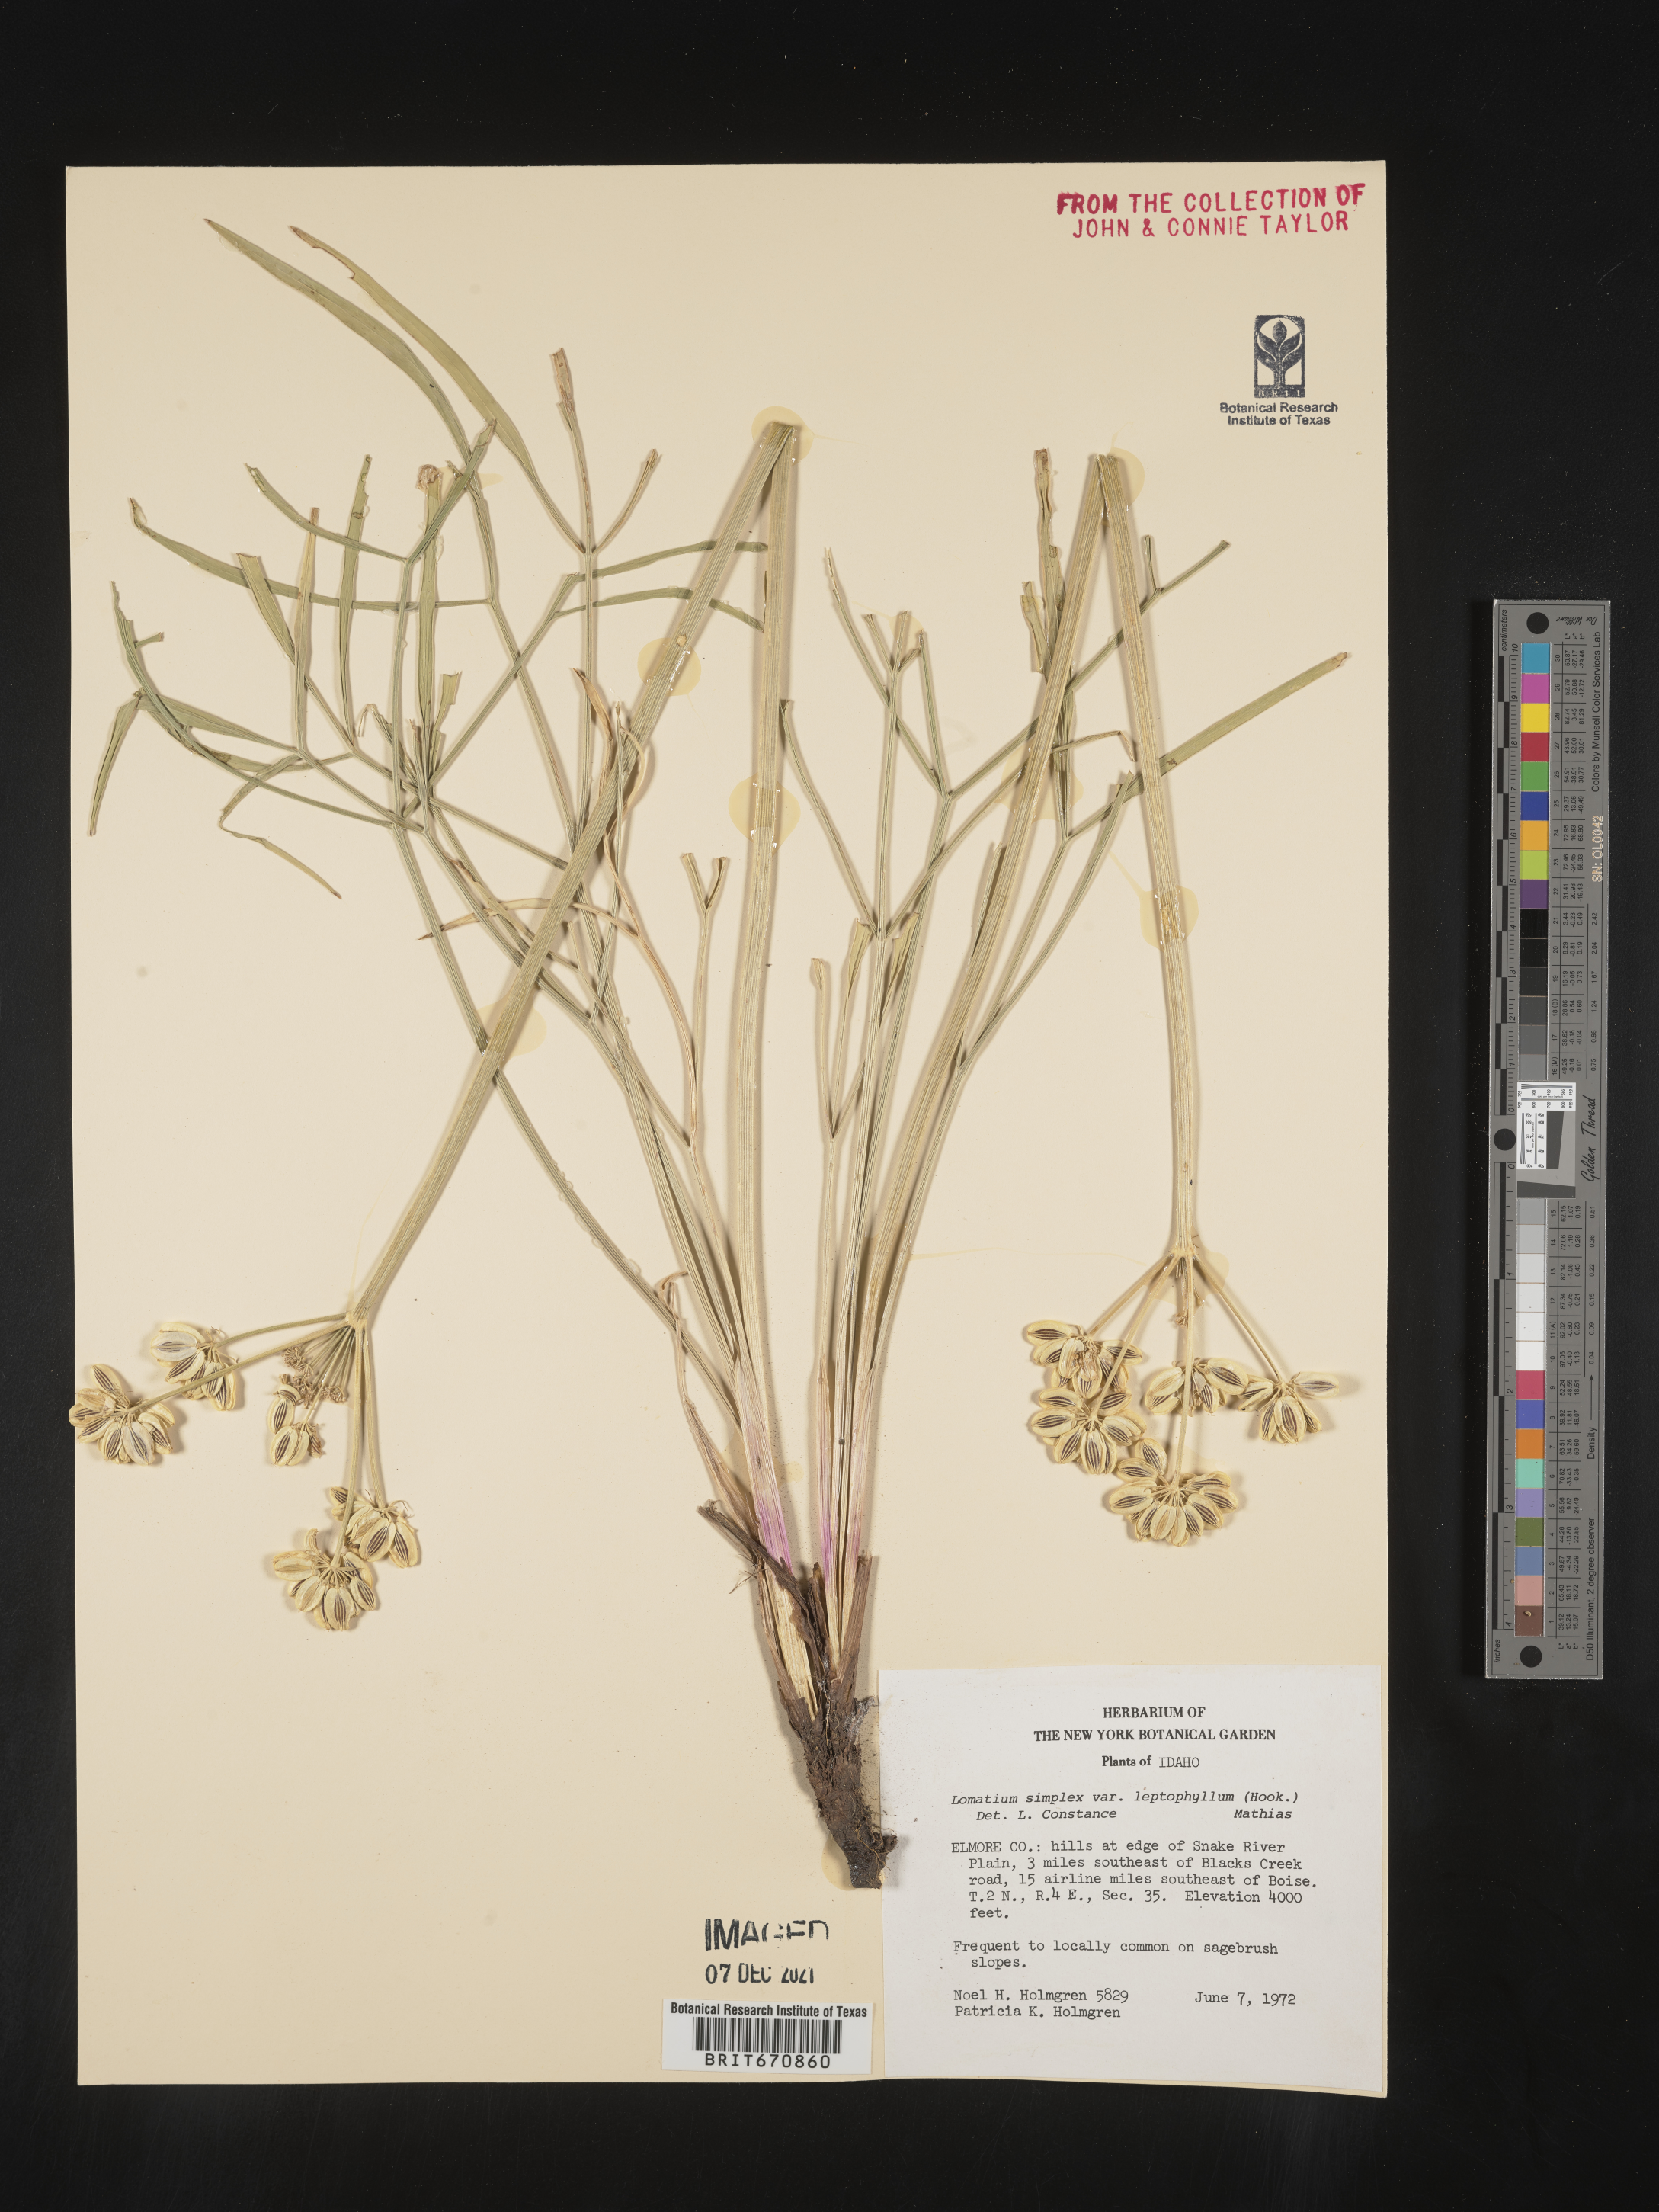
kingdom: Plantae
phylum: Tracheophyta
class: Magnoliopsida
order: Apiales
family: Apiaceae
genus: Lomatium
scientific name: Lomatium simplex
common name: Great basin biscuitroot
